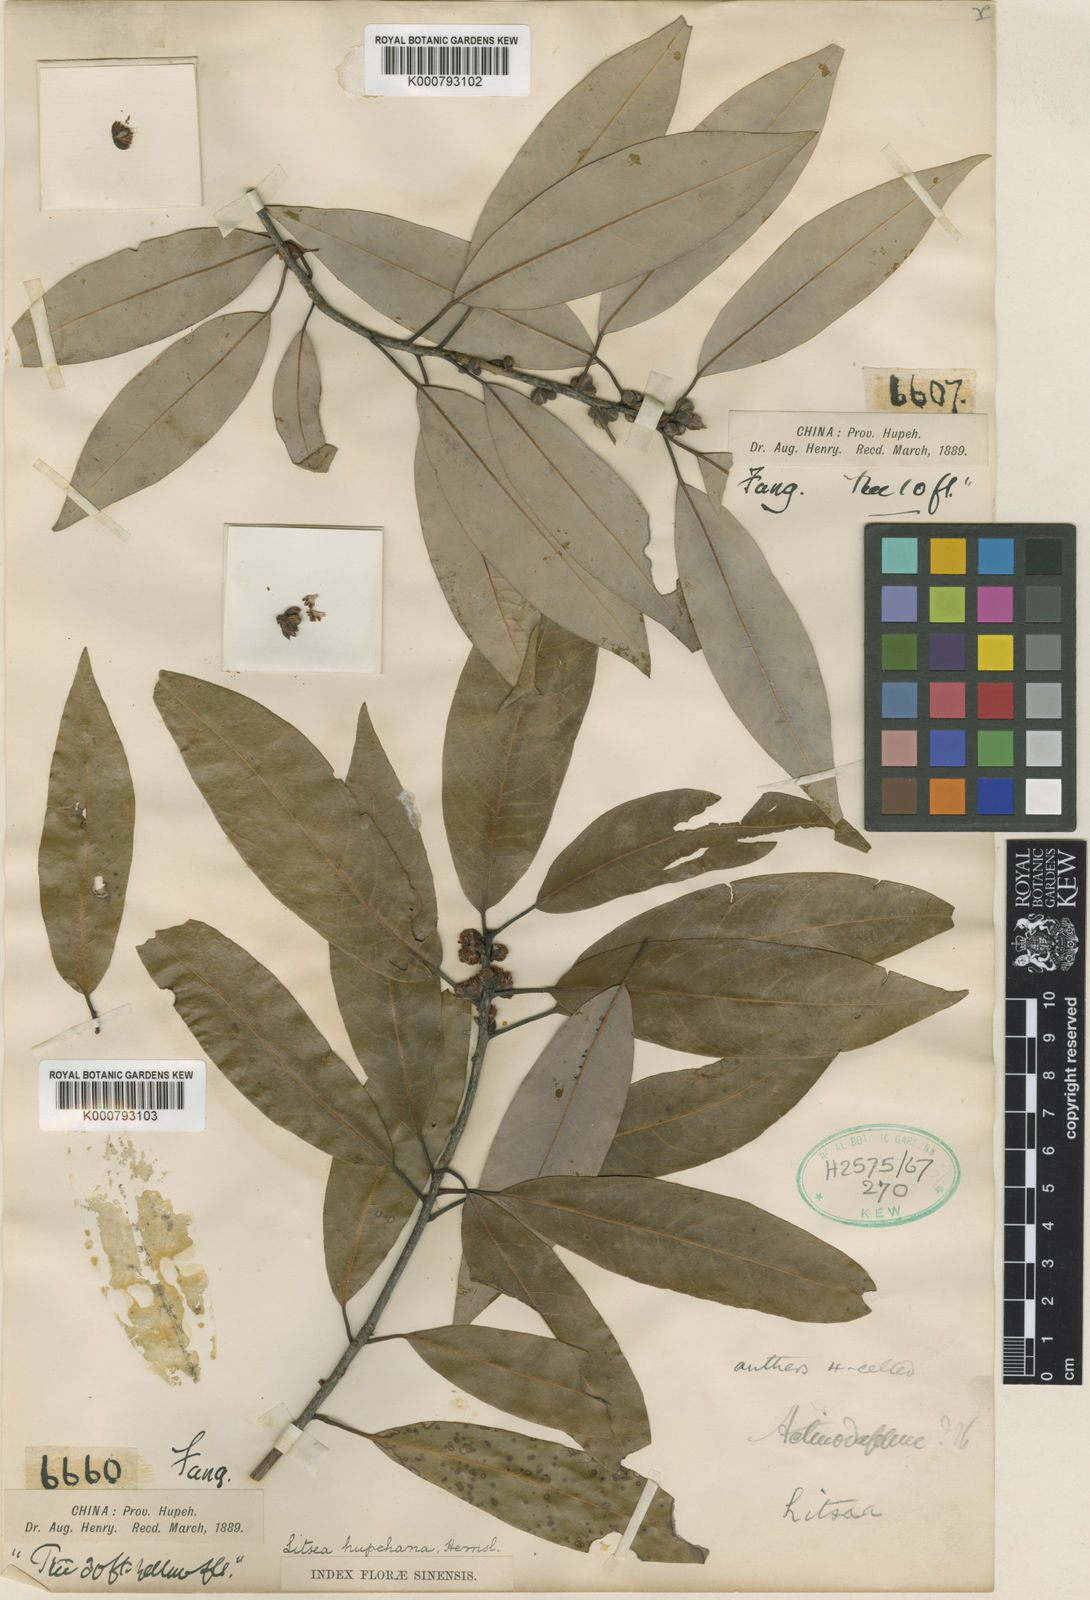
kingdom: Plantae
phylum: Tracheophyta
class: Magnoliopsida
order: Laurales
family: Lauraceae
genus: Litsea
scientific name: Litsea hupehana
